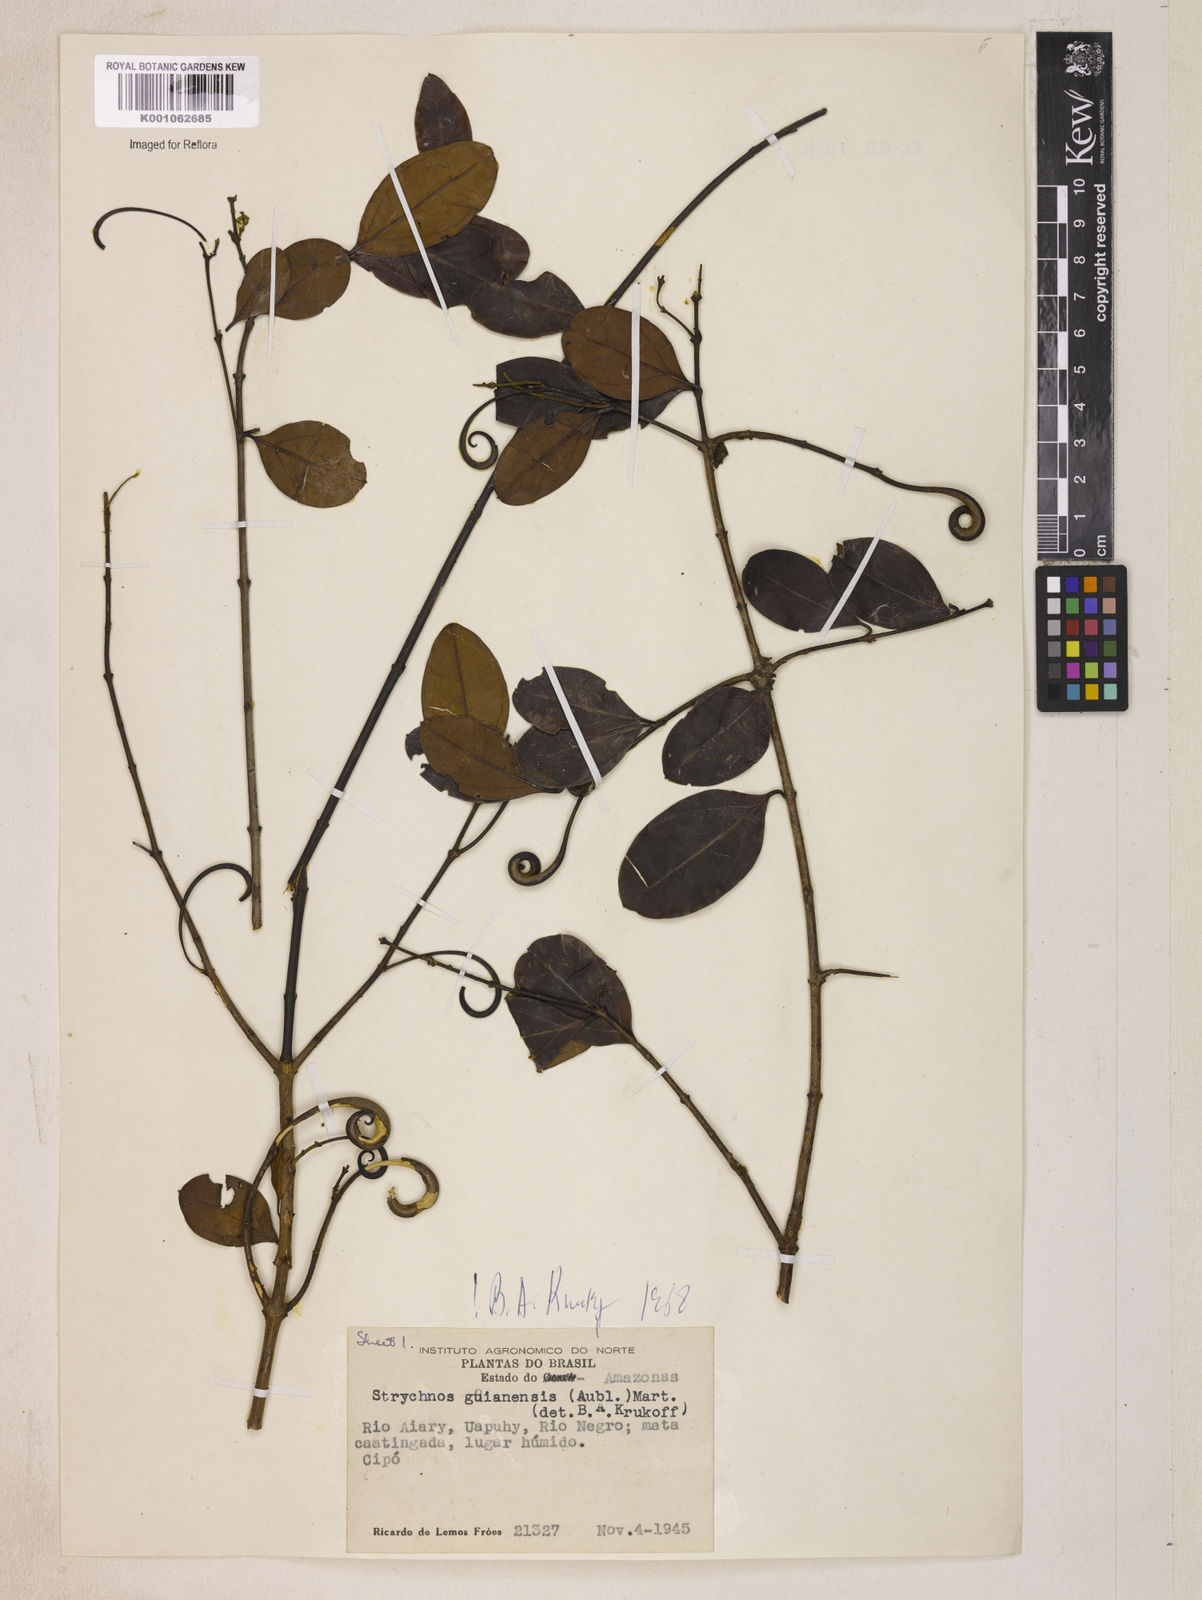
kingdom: Plantae
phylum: Tracheophyta
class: Magnoliopsida
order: Gentianales
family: Loganiaceae
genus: Strychnos
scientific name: Strychnos guianensis
